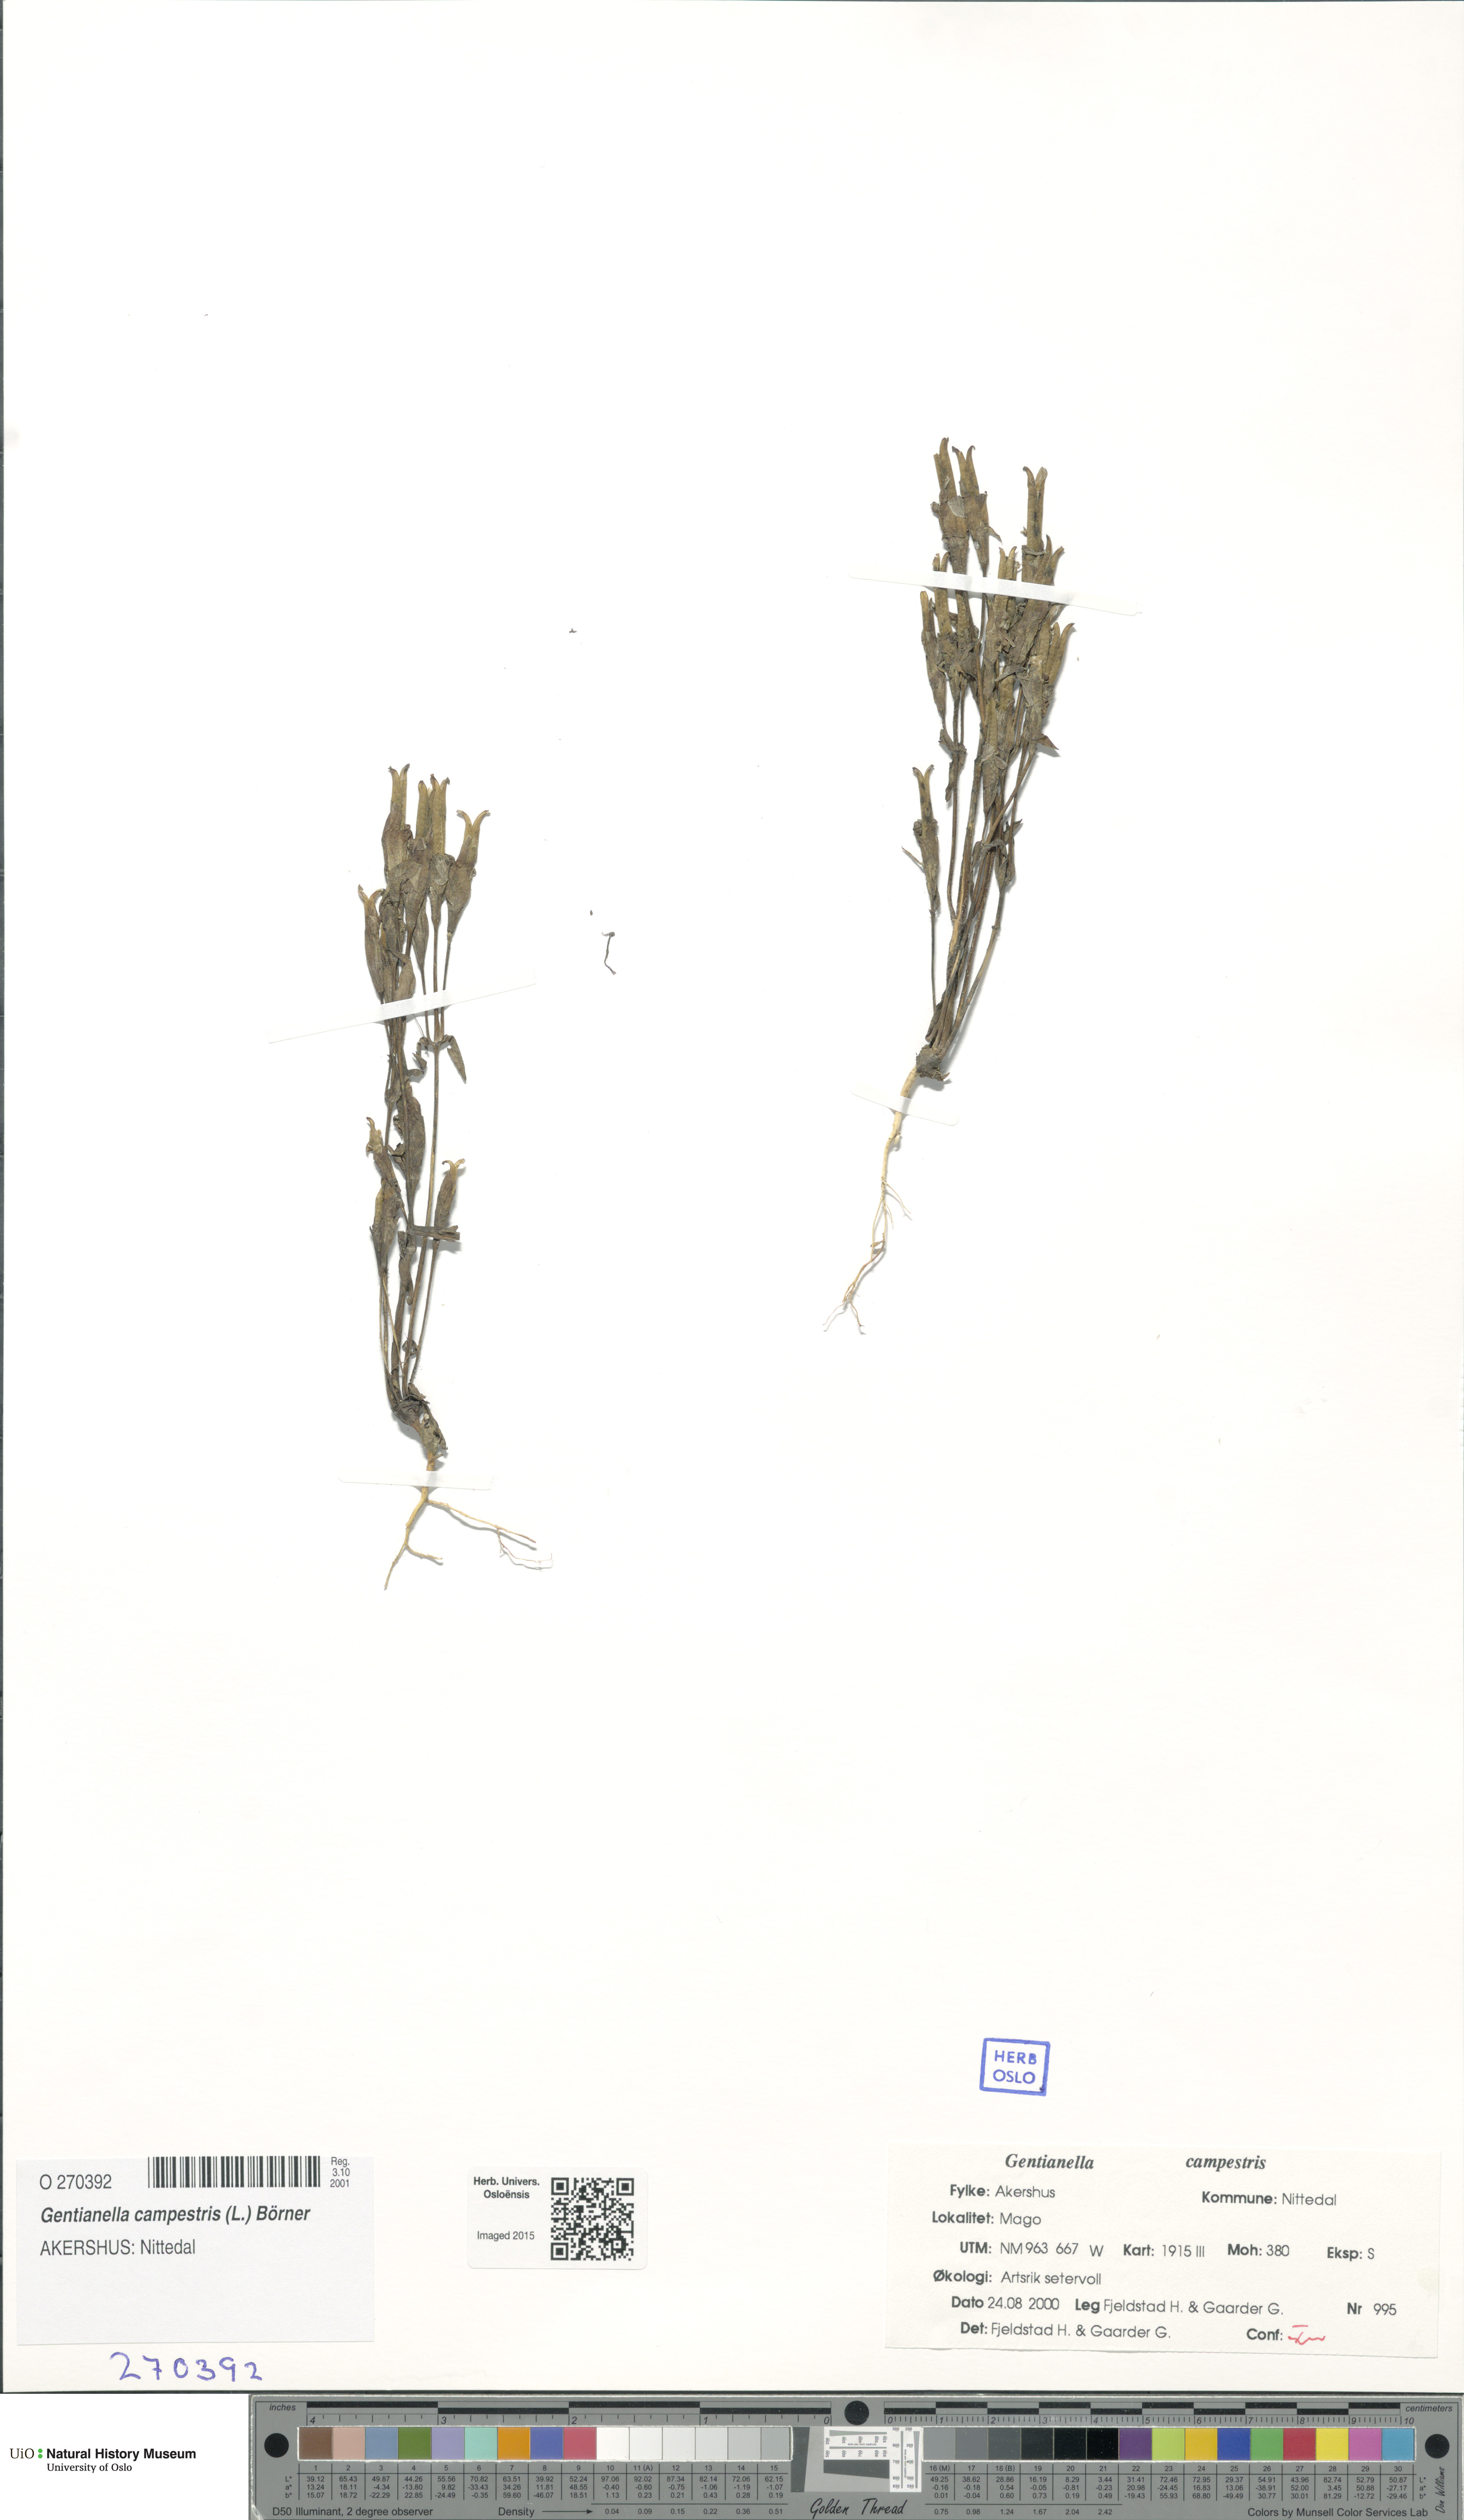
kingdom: Plantae
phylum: Tracheophyta
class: Magnoliopsida
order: Gentianales
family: Gentianaceae
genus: Gentianella
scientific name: Gentianella campestris
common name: Field gentian
